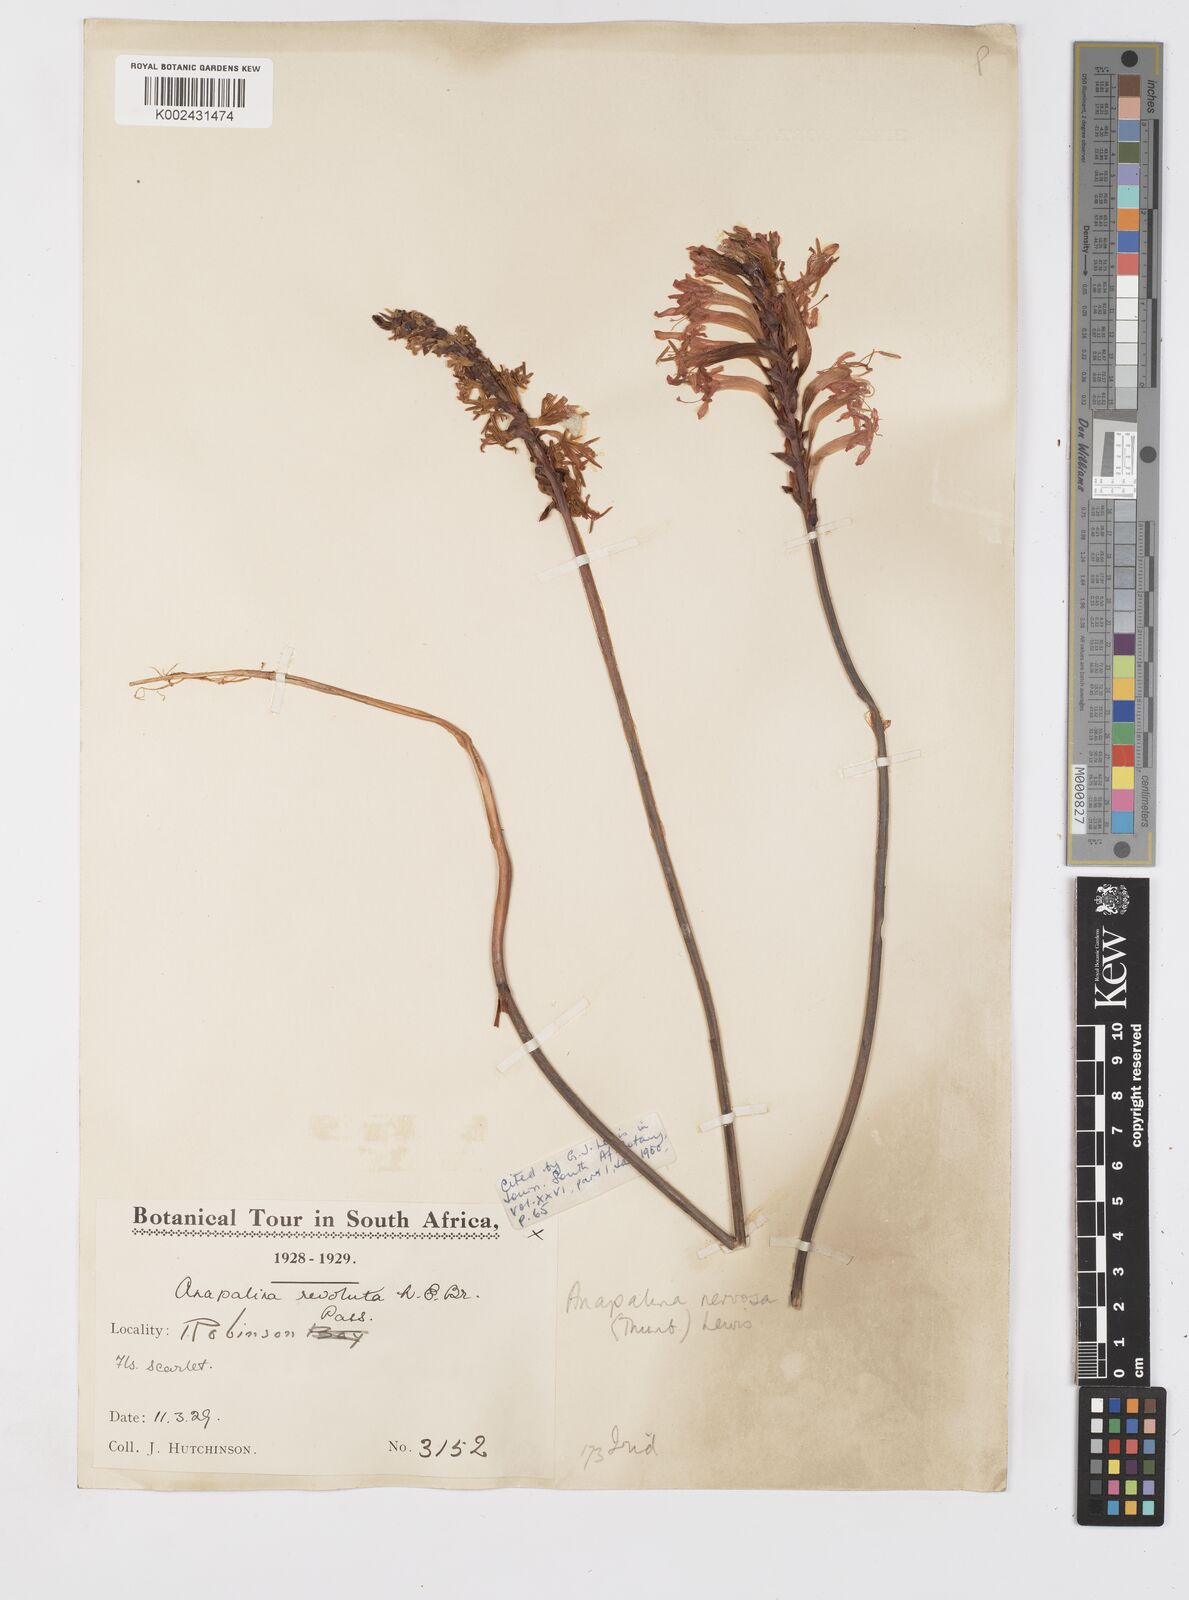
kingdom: Plantae
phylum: Tracheophyta
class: Liliopsida
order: Asparagales
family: Iridaceae
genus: Tritoniopsis
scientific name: Tritoniopsis nervosa
